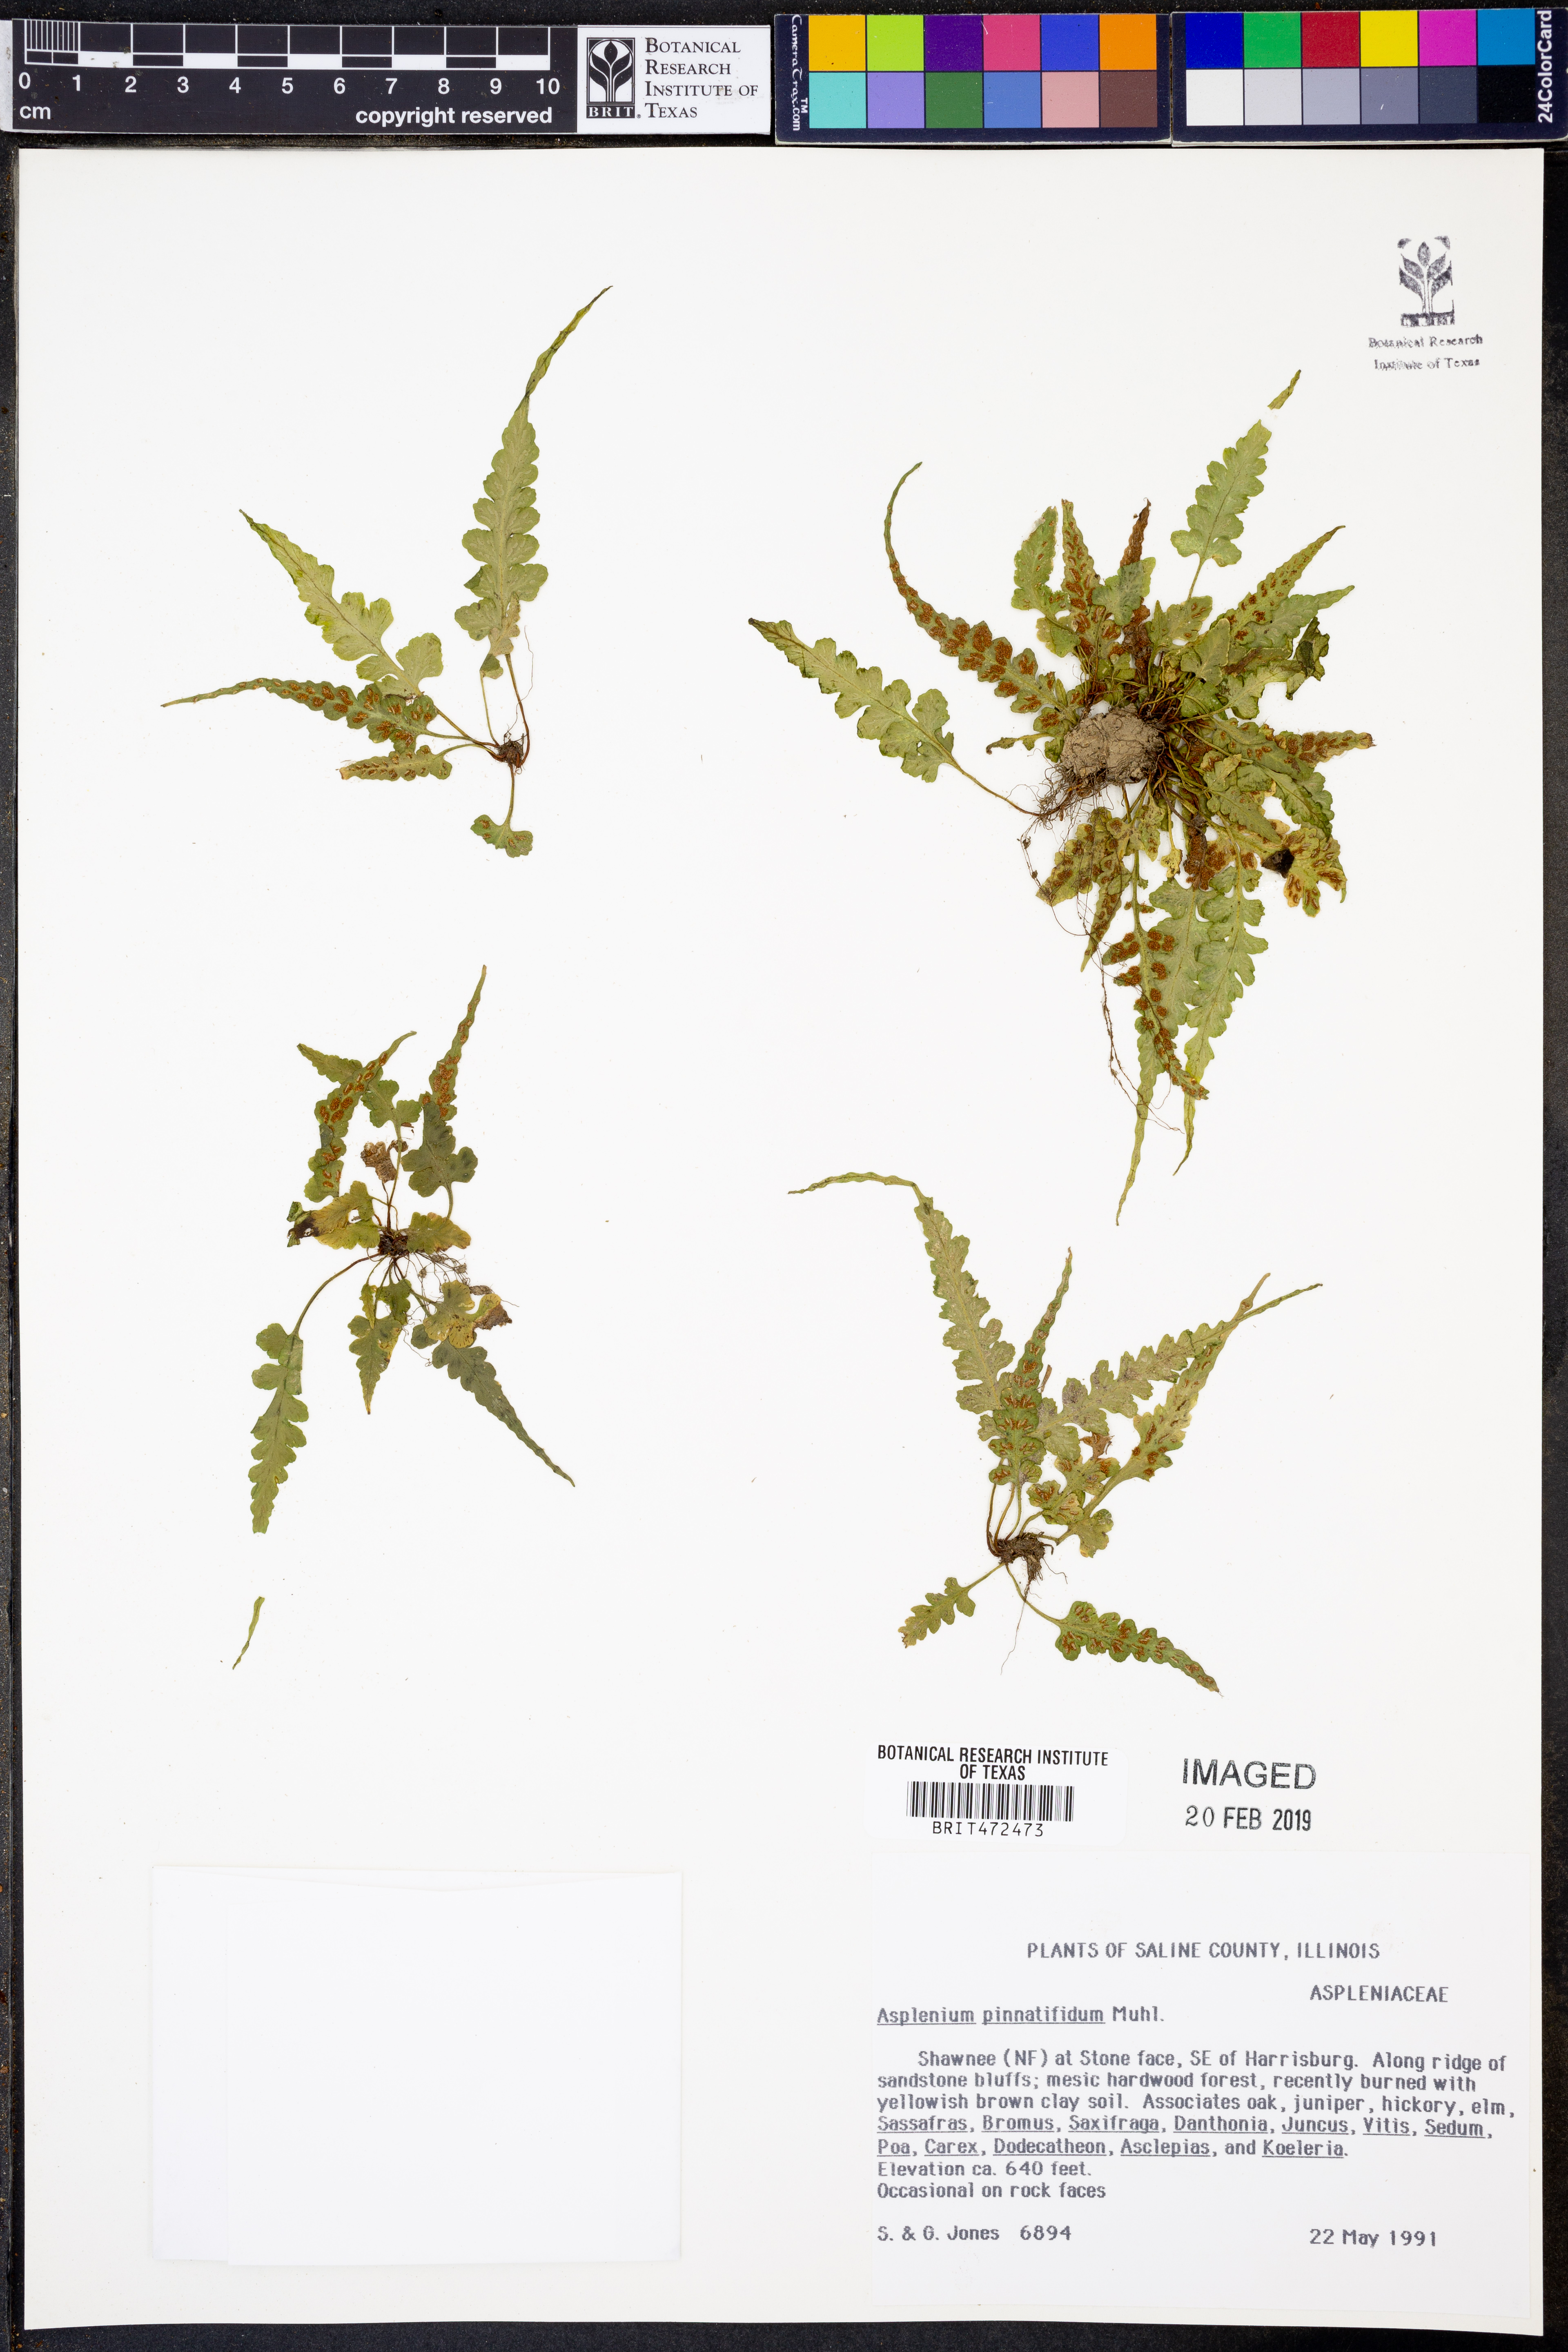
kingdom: Plantae
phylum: Tracheophyta
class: Polypodiopsida
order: Polypodiales
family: Aspleniaceae
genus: Asplenium
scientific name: Asplenium pinnatifidum
